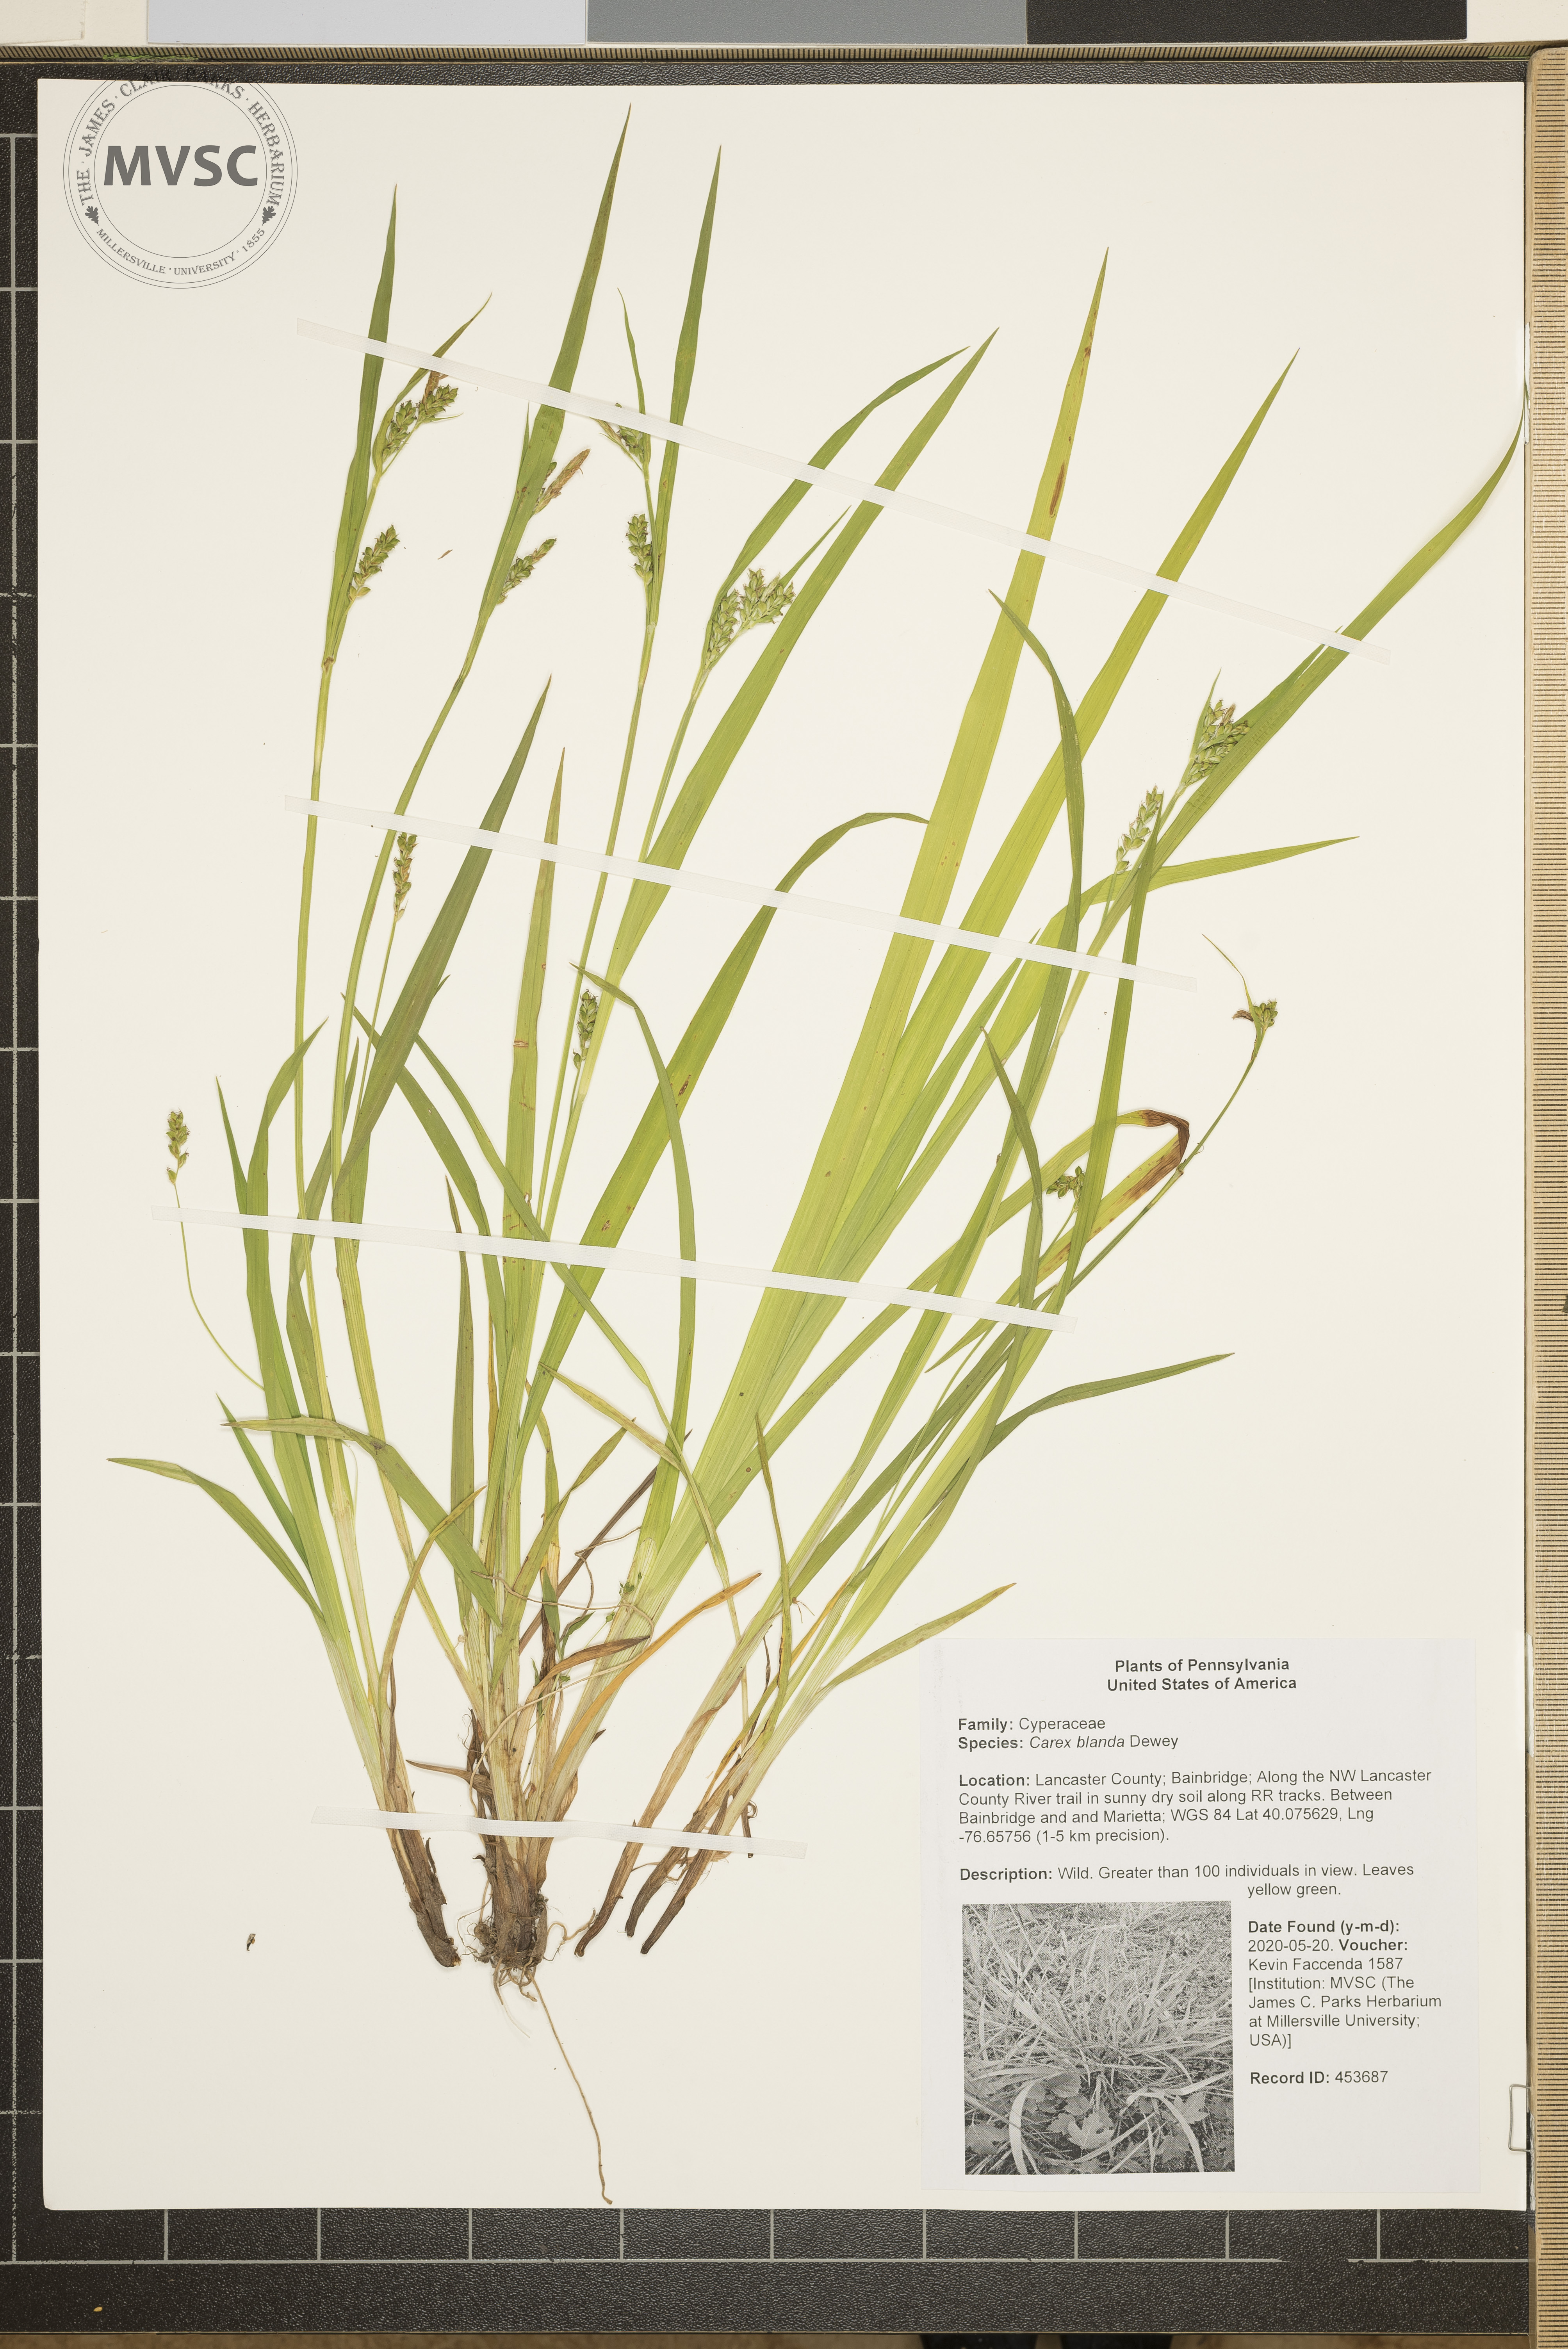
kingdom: Plantae
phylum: Tracheophyta
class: Liliopsida
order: Poales
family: Cyperaceae
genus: Carex
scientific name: Carex blanda
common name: Bland sedge
